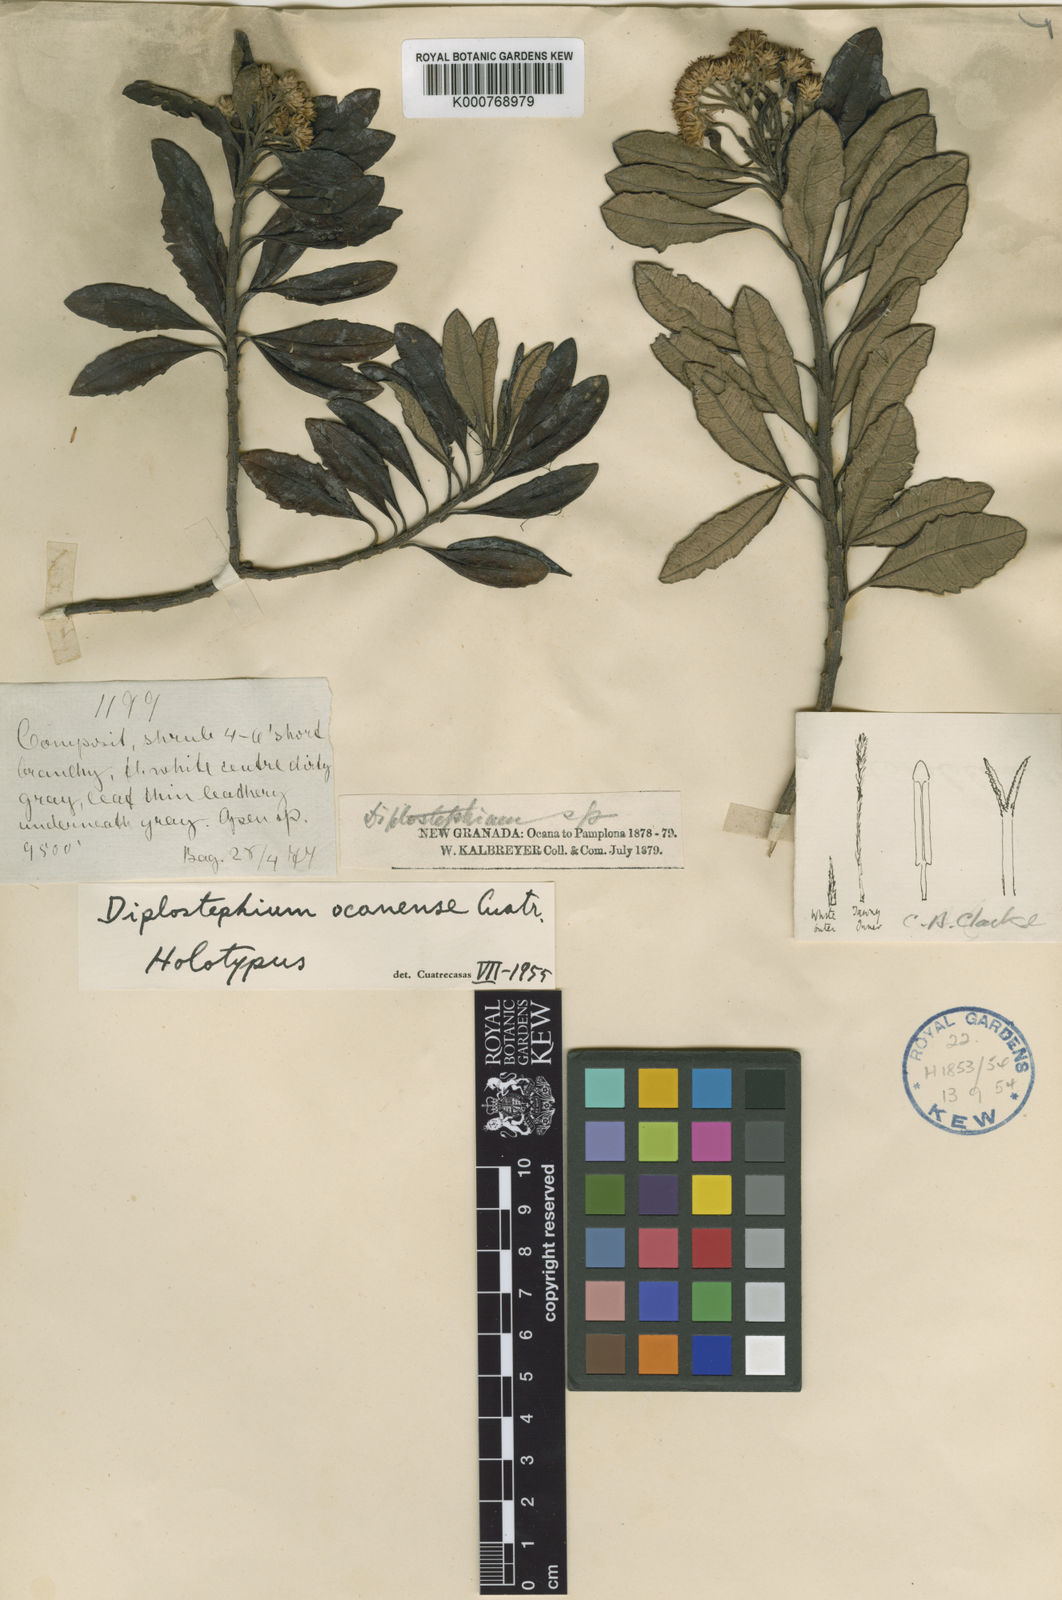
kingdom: Plantae
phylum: Tracheophyta
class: Magnoliopsida
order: Asterales
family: Asteraceae
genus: Linochilus
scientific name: Linochilus ocanensis
